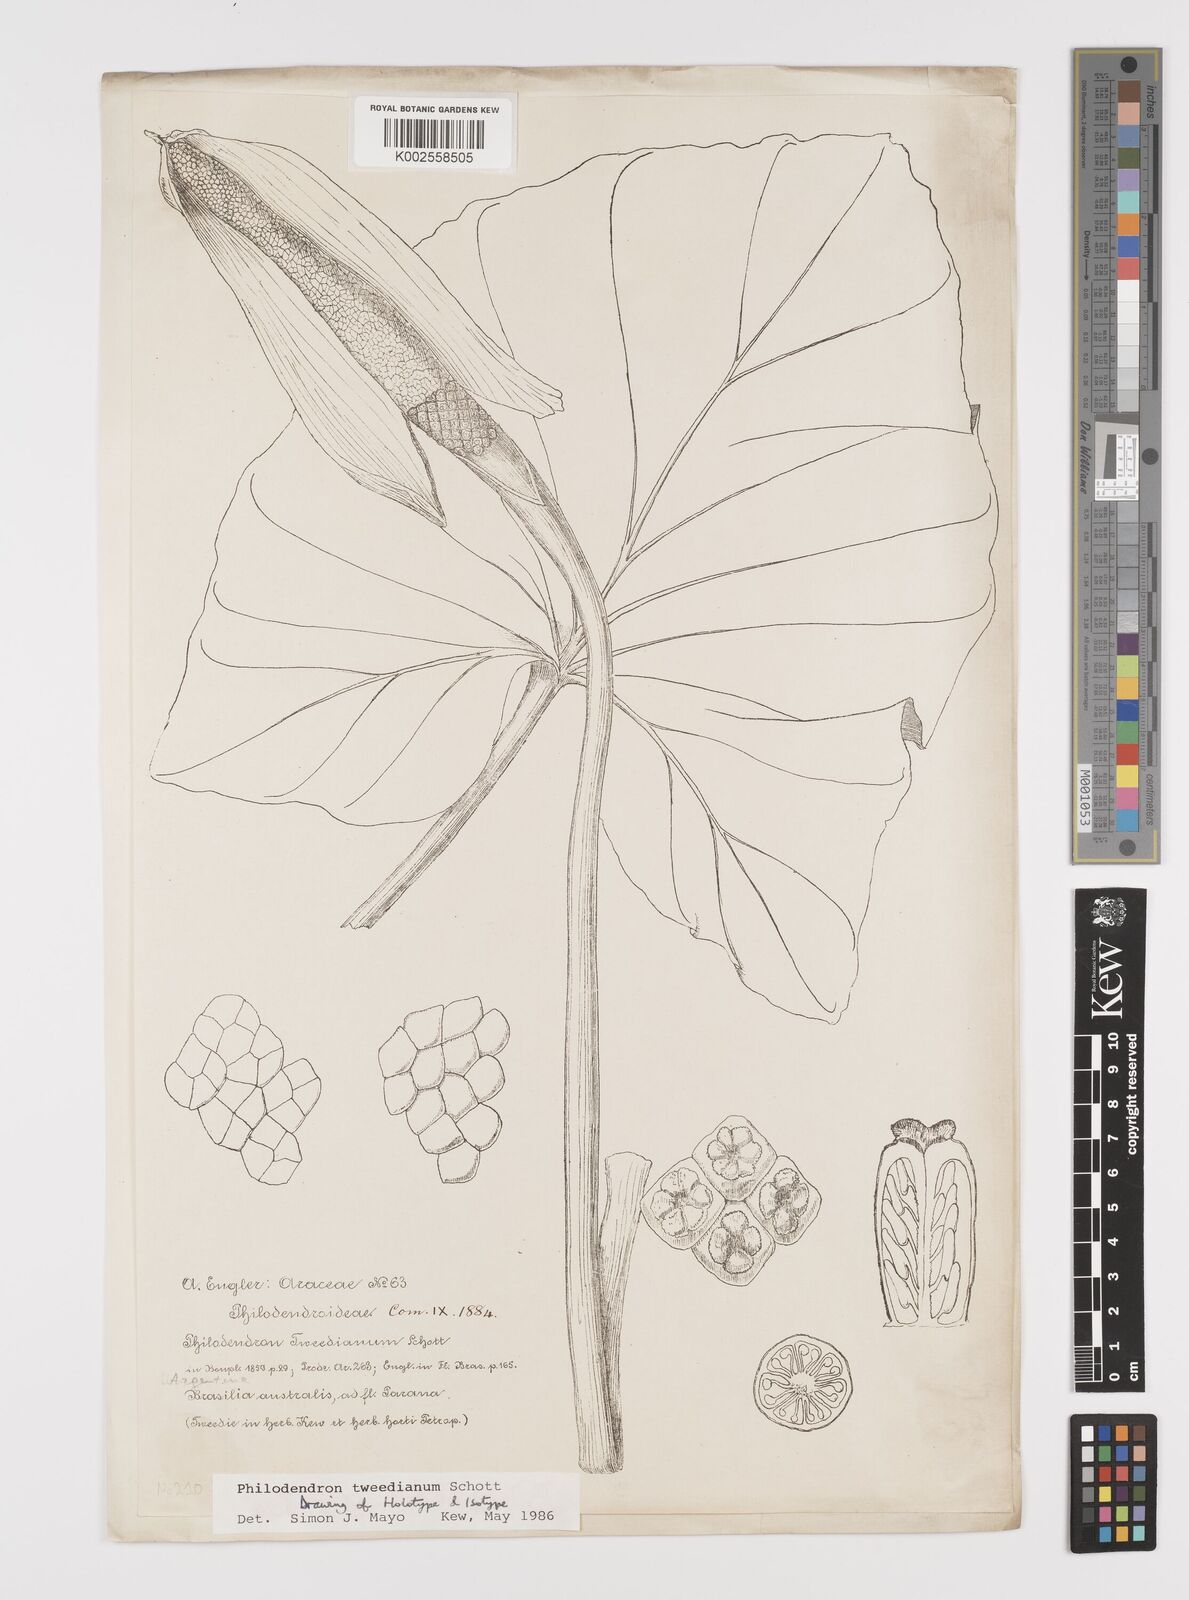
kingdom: Plantae
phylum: Tracheophyta
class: Liliopsida
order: Alismatales
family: Araceae
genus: Thaumatophyllum
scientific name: Thaumatophyllum tweedieanum
